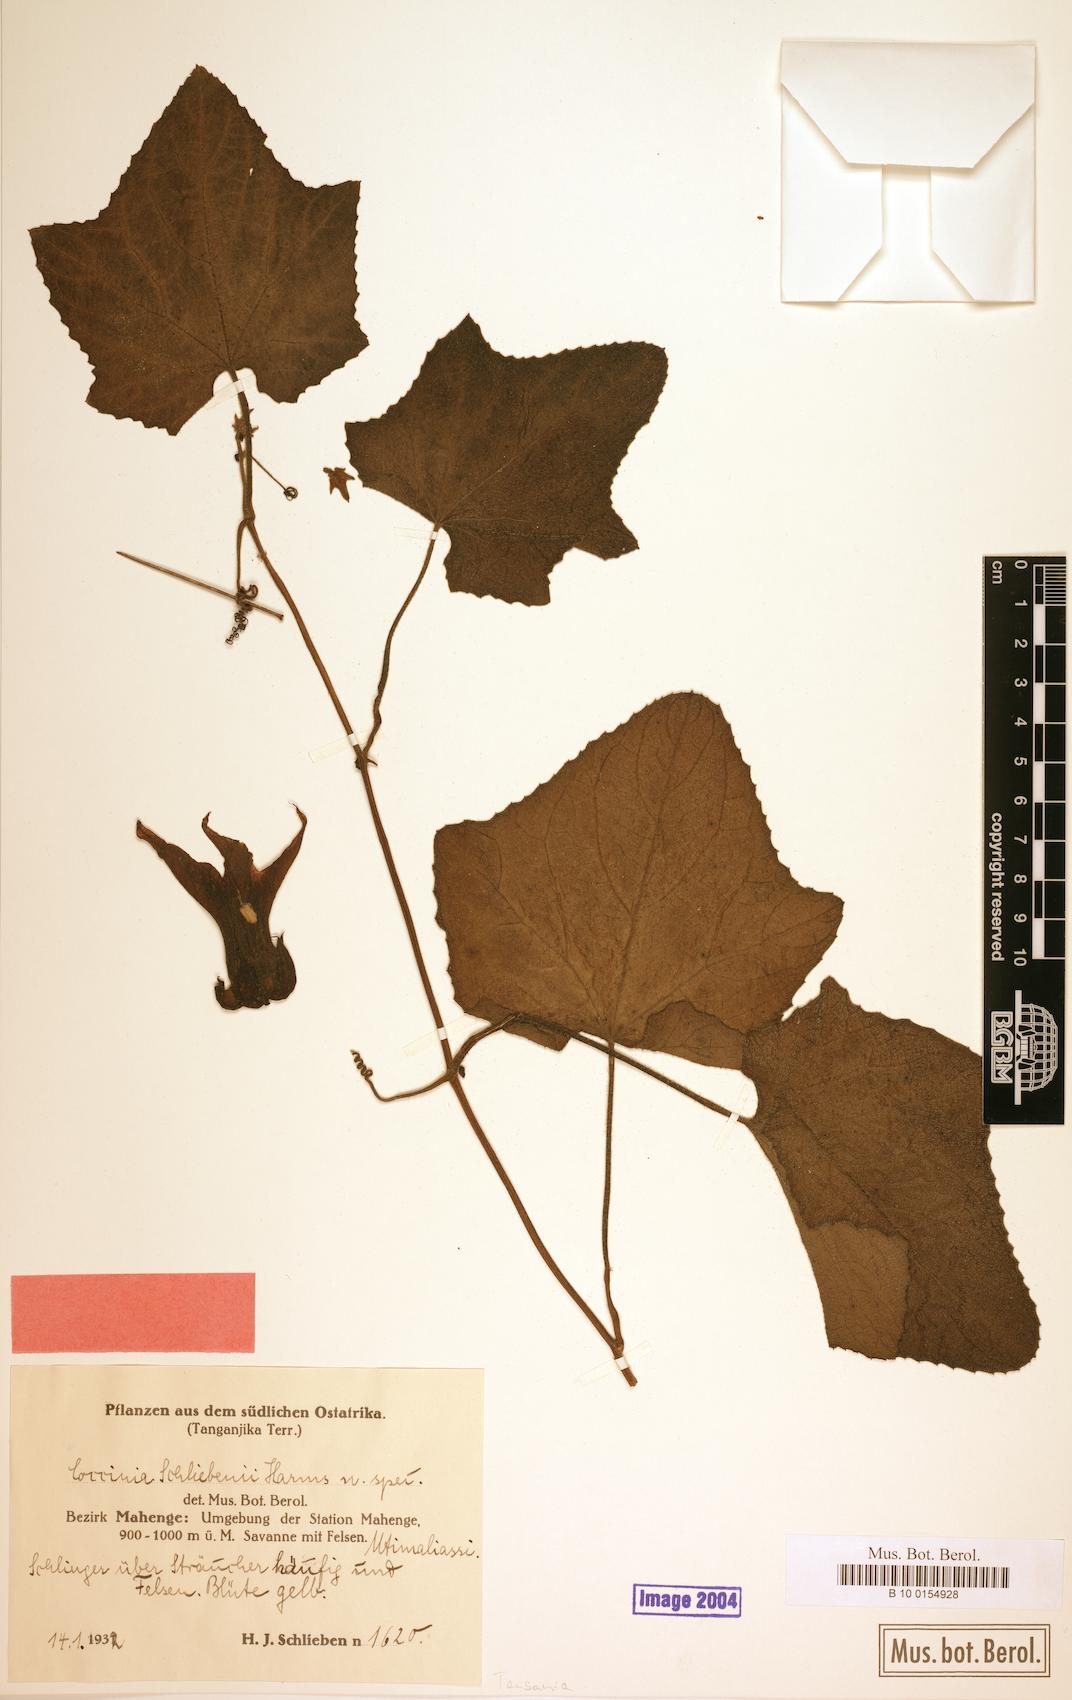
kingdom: Plantae
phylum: Tracheophyta
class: Magnoliopsida
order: Cucurbitales
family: Cucurbitaceae
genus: Coccinia
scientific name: Coccinia schliebenii
